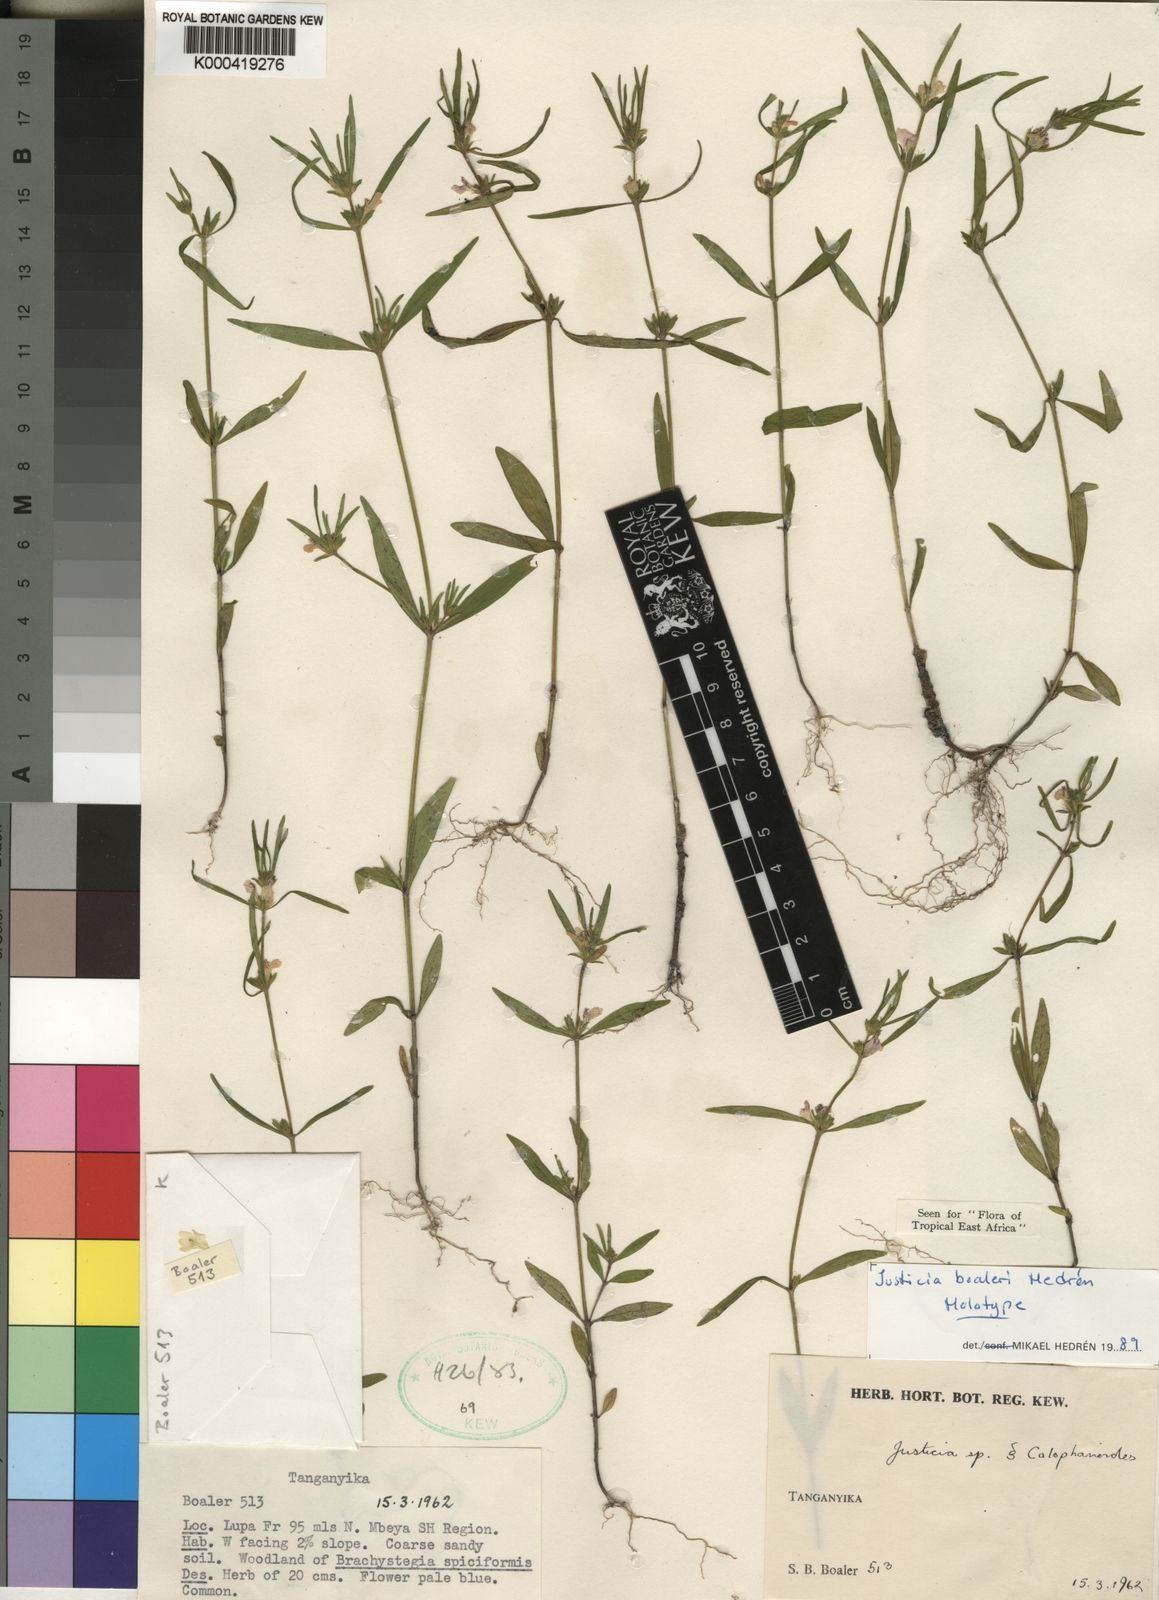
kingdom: Plantae
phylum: Tracheophyta
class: Magnoliopsida
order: Lamiales
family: Acanthaceae
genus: Justicia
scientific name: Justicia
